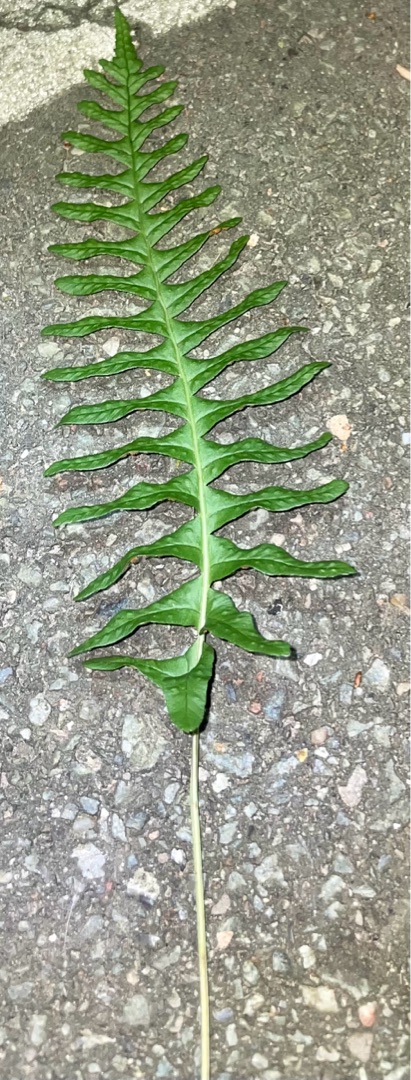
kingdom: Plantae
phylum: Tracheophyta
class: Polypodiopsida
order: Polypodiales
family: Polypodiaceae
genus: Polypodium
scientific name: Polypodium vulgare
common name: Almindelig engelsød
